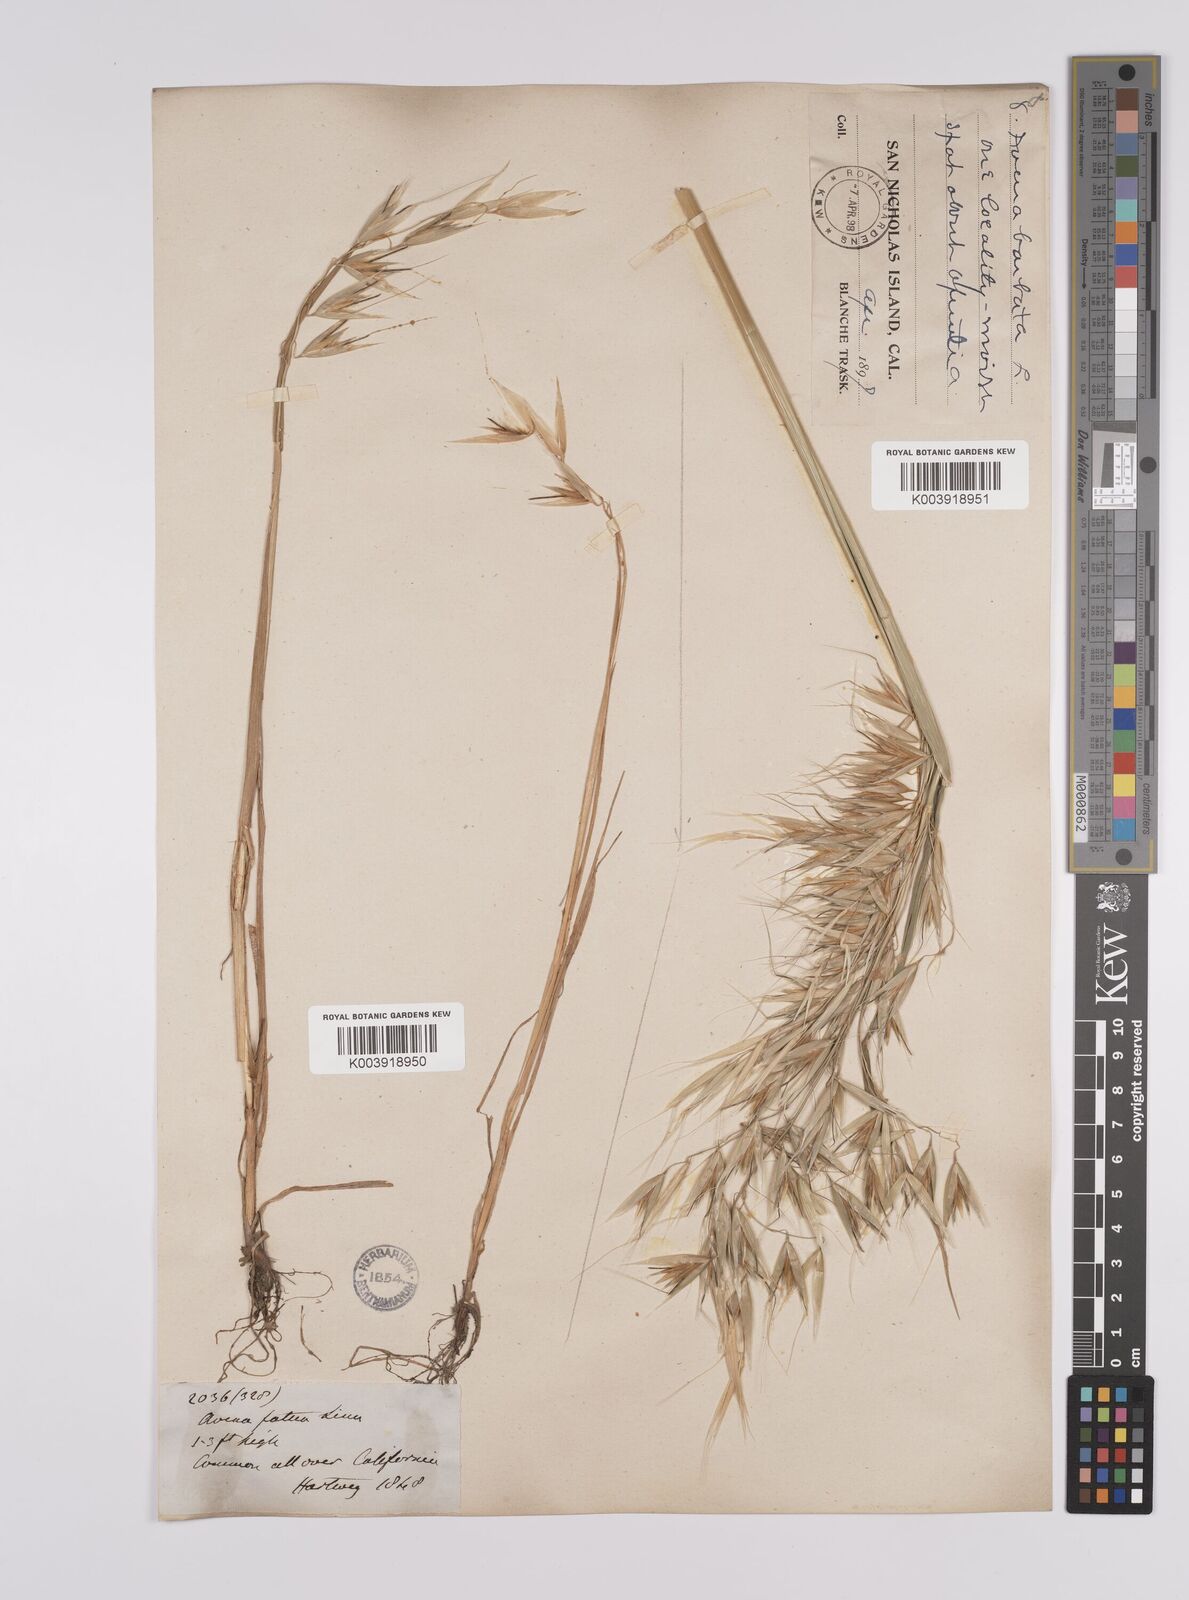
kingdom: Plantae
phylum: Tracheophyta
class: Liliopsida
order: Poales
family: Poaceae
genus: Avena
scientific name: Avena fatua
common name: Wild oat
